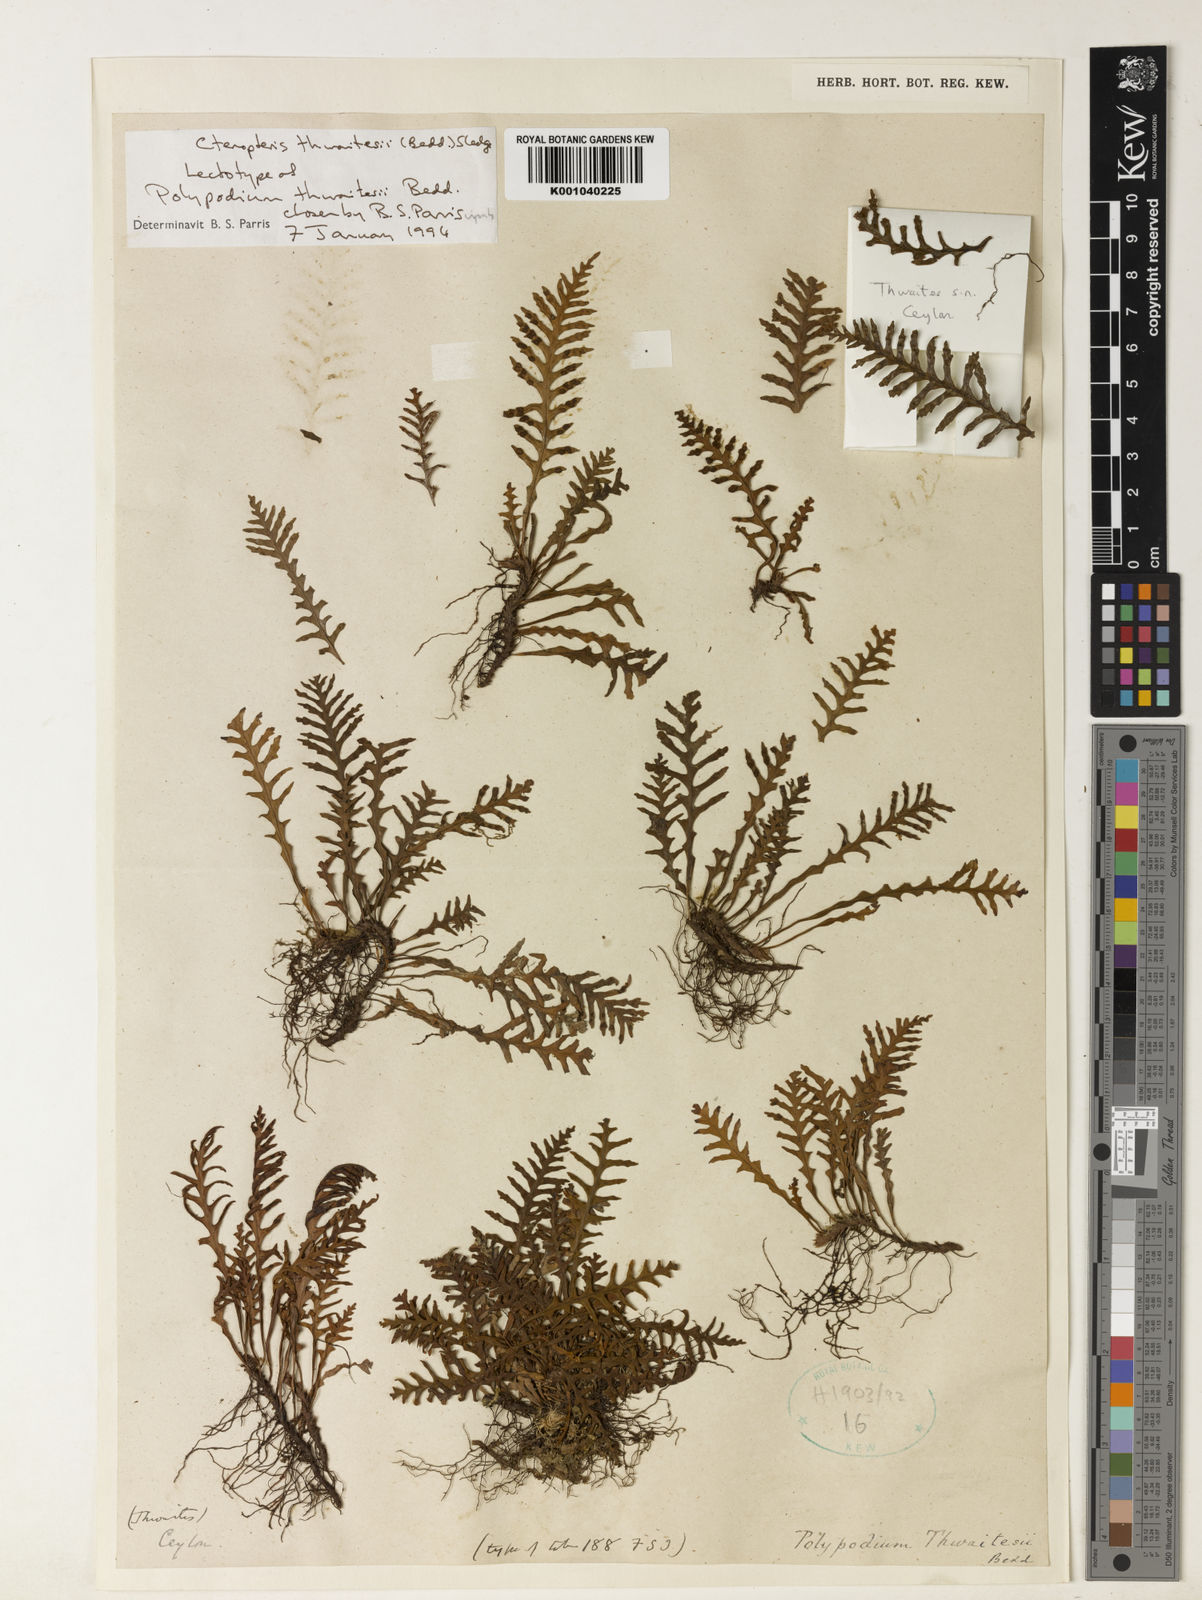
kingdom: Plantae
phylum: Tracheophyta
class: Polypodiopsida
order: Polypodiales
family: Polypodiaceae
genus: Ctenopterella
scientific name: Ctenopterella thwaitesii
